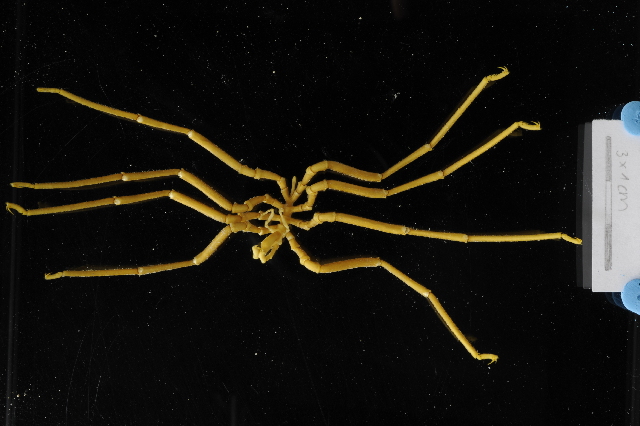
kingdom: Animalia
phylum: Arthropoda
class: Pycnogonida
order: Pantopoda
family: Pallenopsidae
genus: Pallenopsis
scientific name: Pallenopsis obstaculumsuperavit
